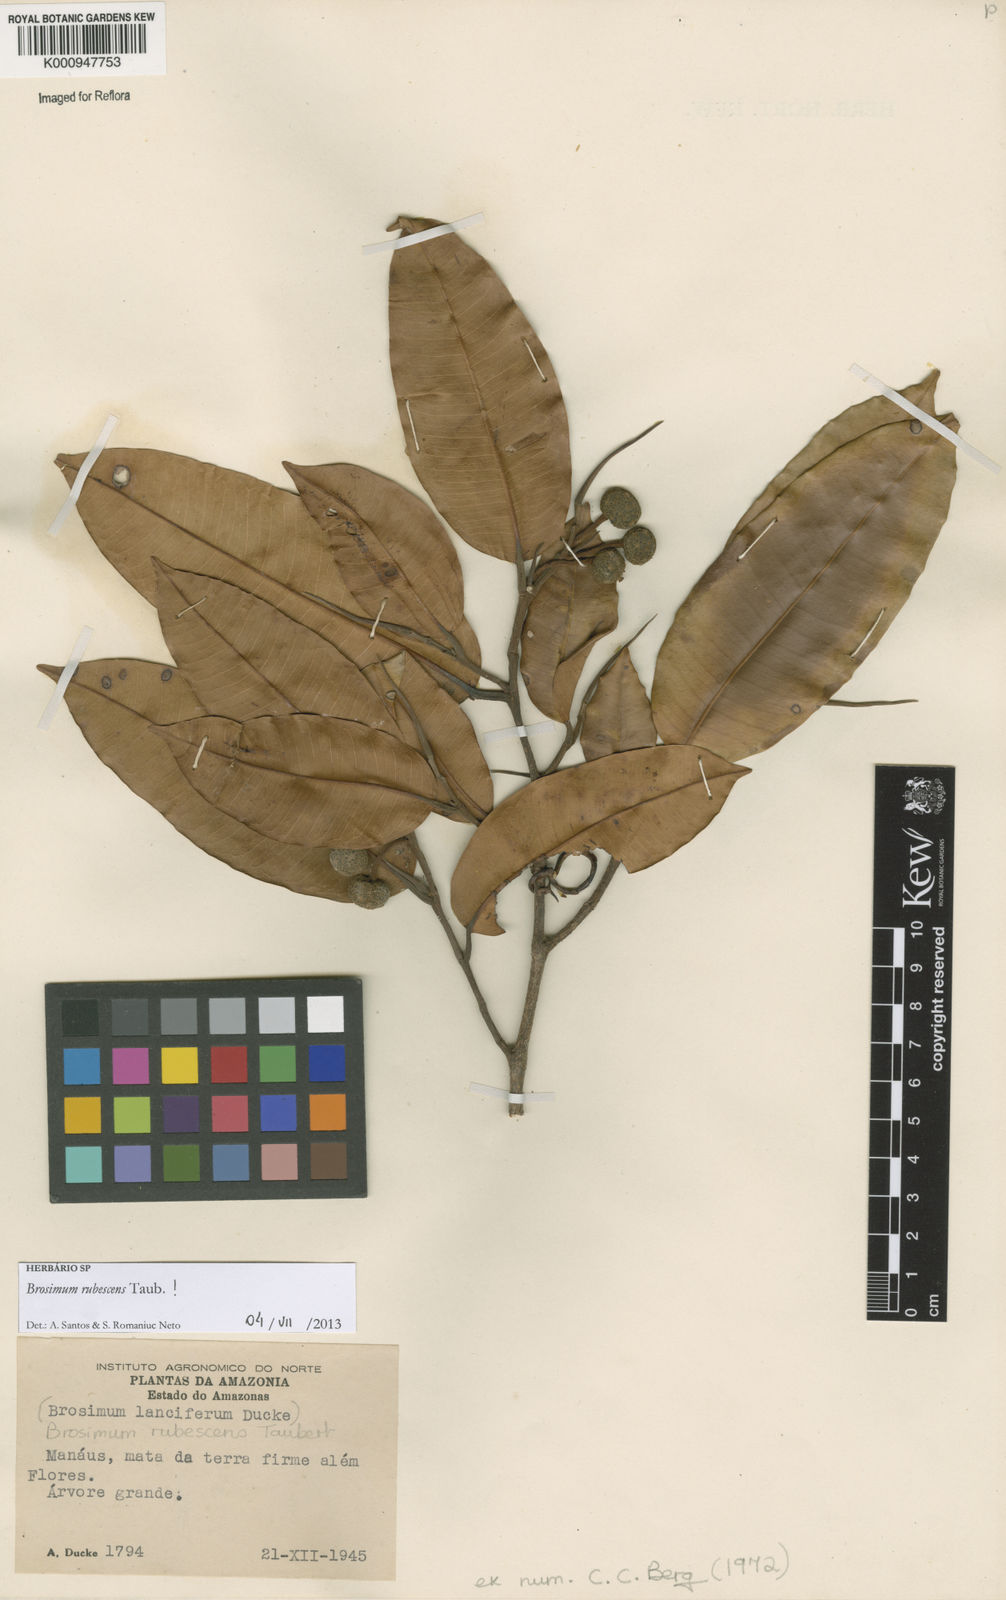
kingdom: Plantae
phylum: Tracheophyta
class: Magnoliopsida
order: Rosales
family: Moraceae
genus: Brosimum
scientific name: Brosimum rubescens
